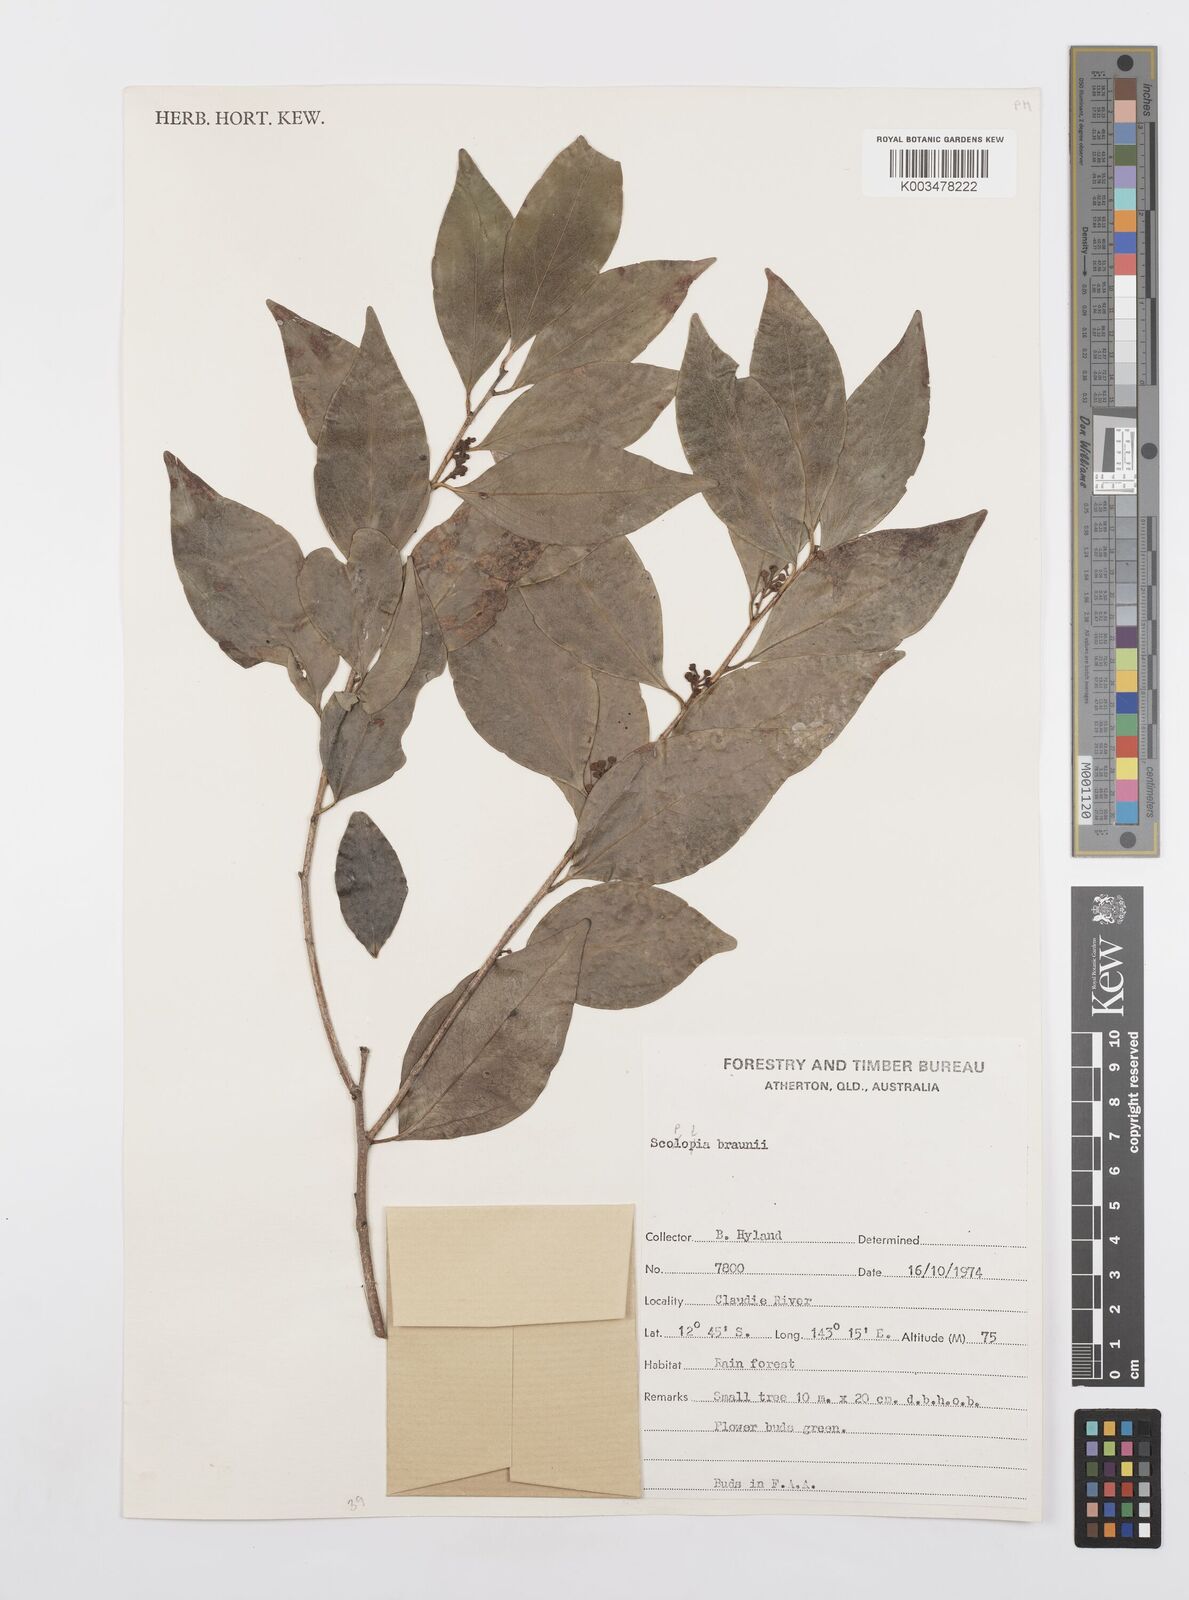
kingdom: Plantae
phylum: Tracheophyta
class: Magnoliopsida
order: Malpighiales
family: Salicaceae
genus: Scolopia
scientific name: Scolopia braunii
